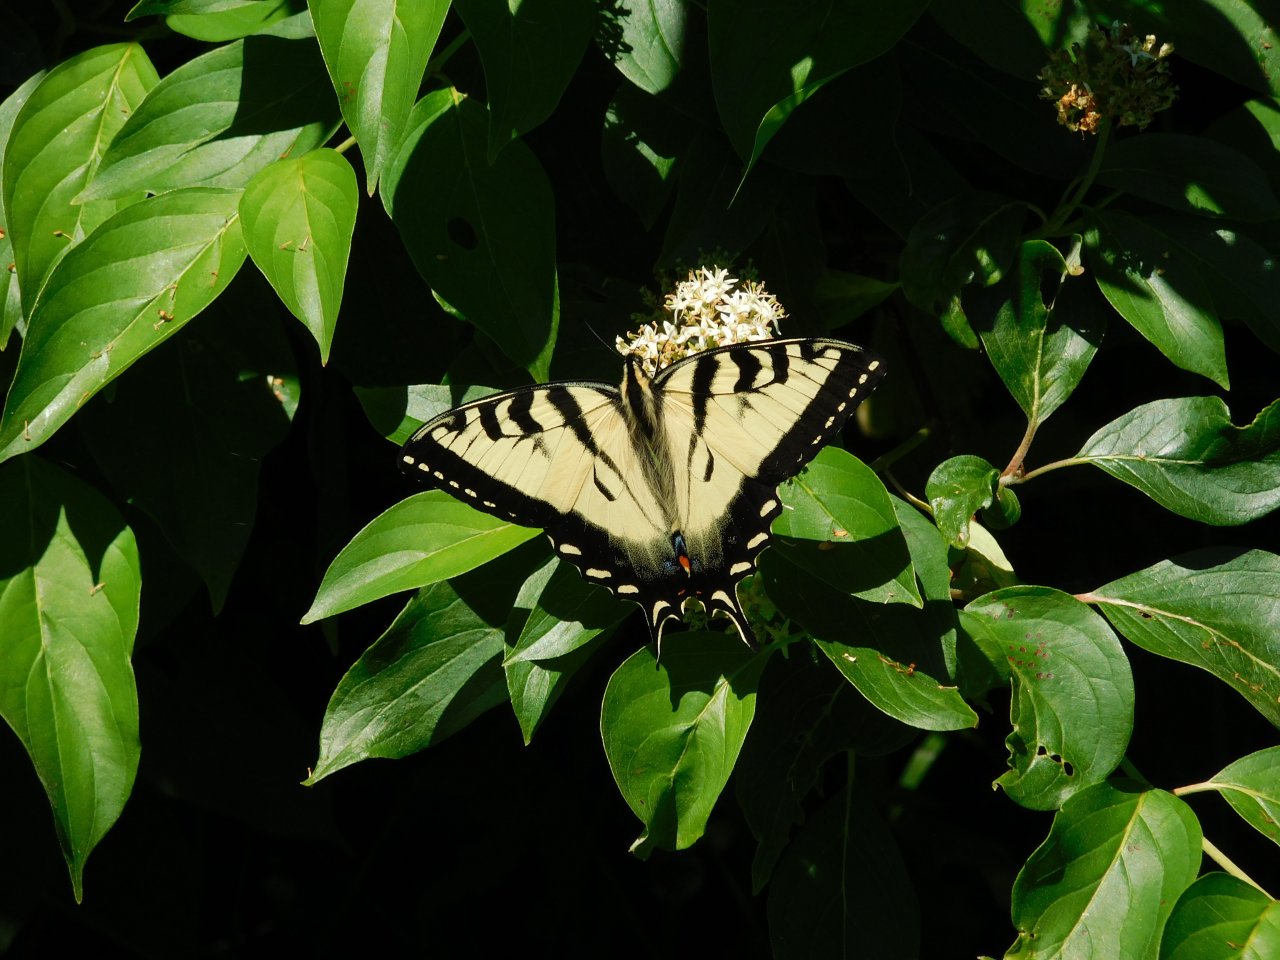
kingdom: Animalia
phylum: Arthropoda
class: Insecta
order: Lepidoptera
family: Papilionidae
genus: Pterourus
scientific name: Pterourus glaucus
